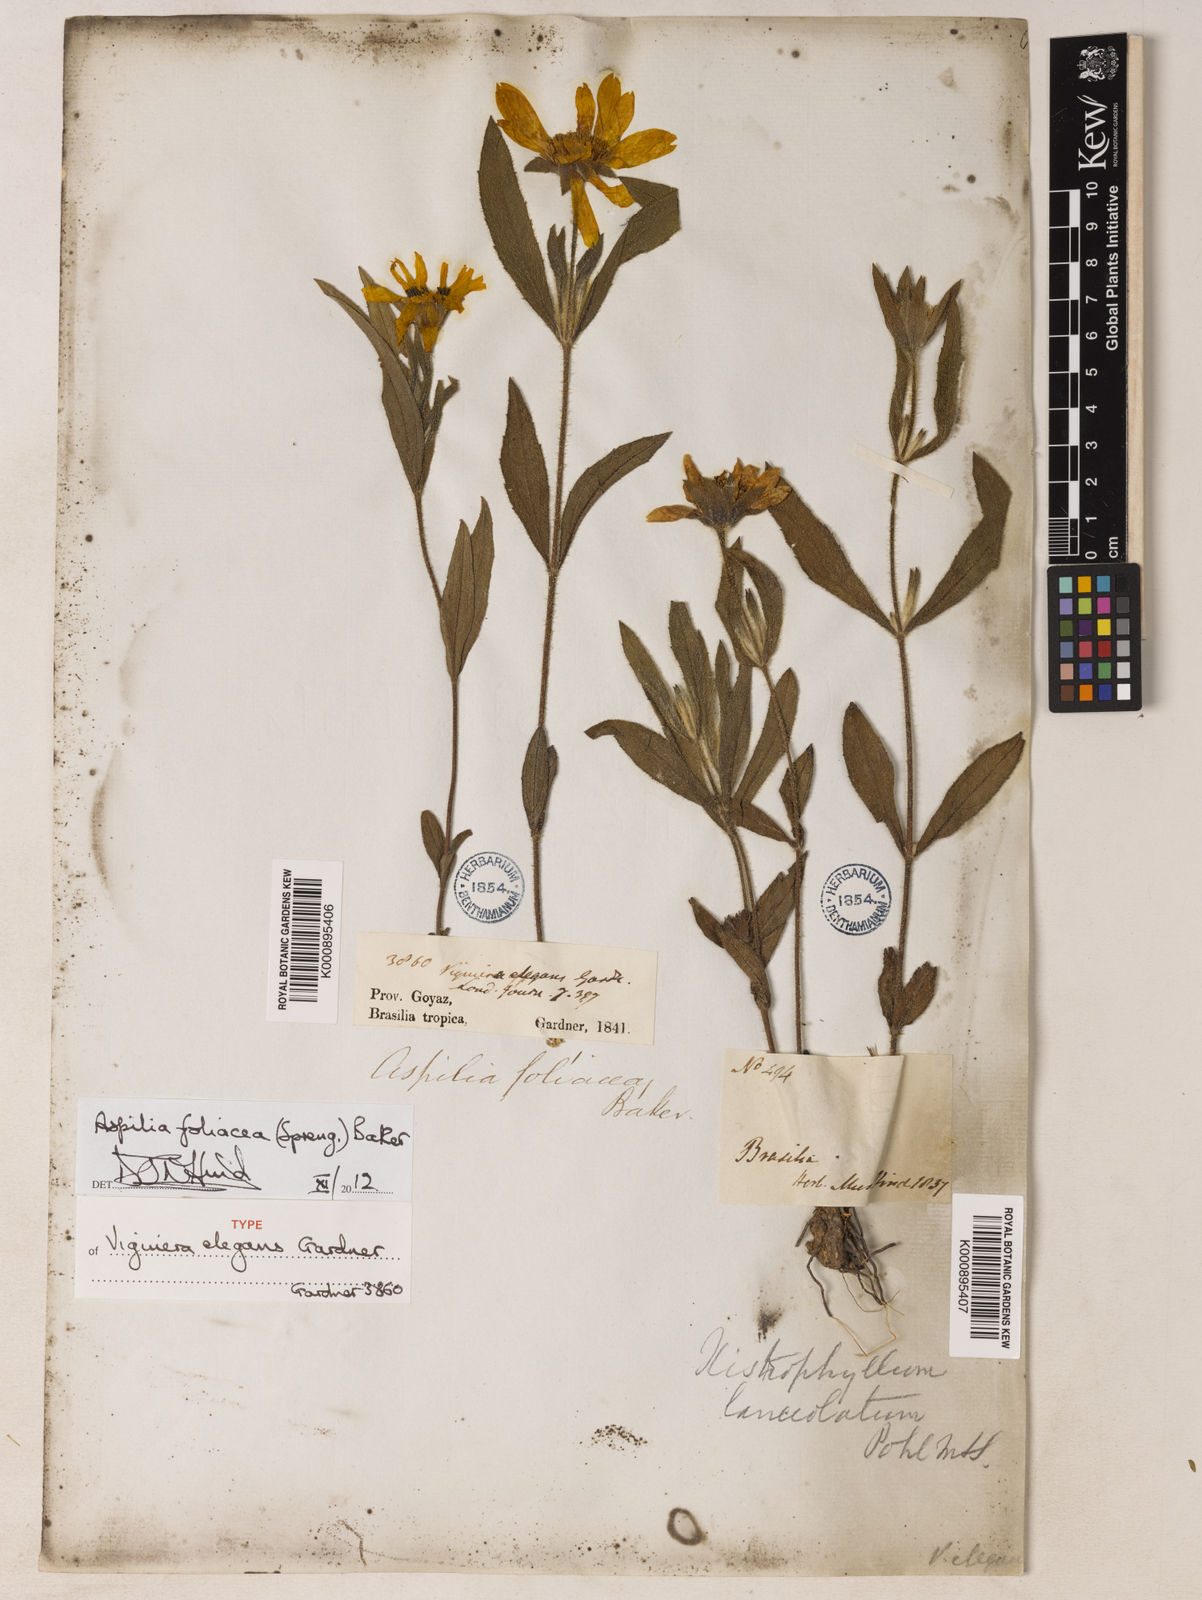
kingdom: Plantae
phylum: Tracheophyta
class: Magnoliopsida
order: Asterales
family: Asteraceae
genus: Wedelia
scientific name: Wedelia foliacea
